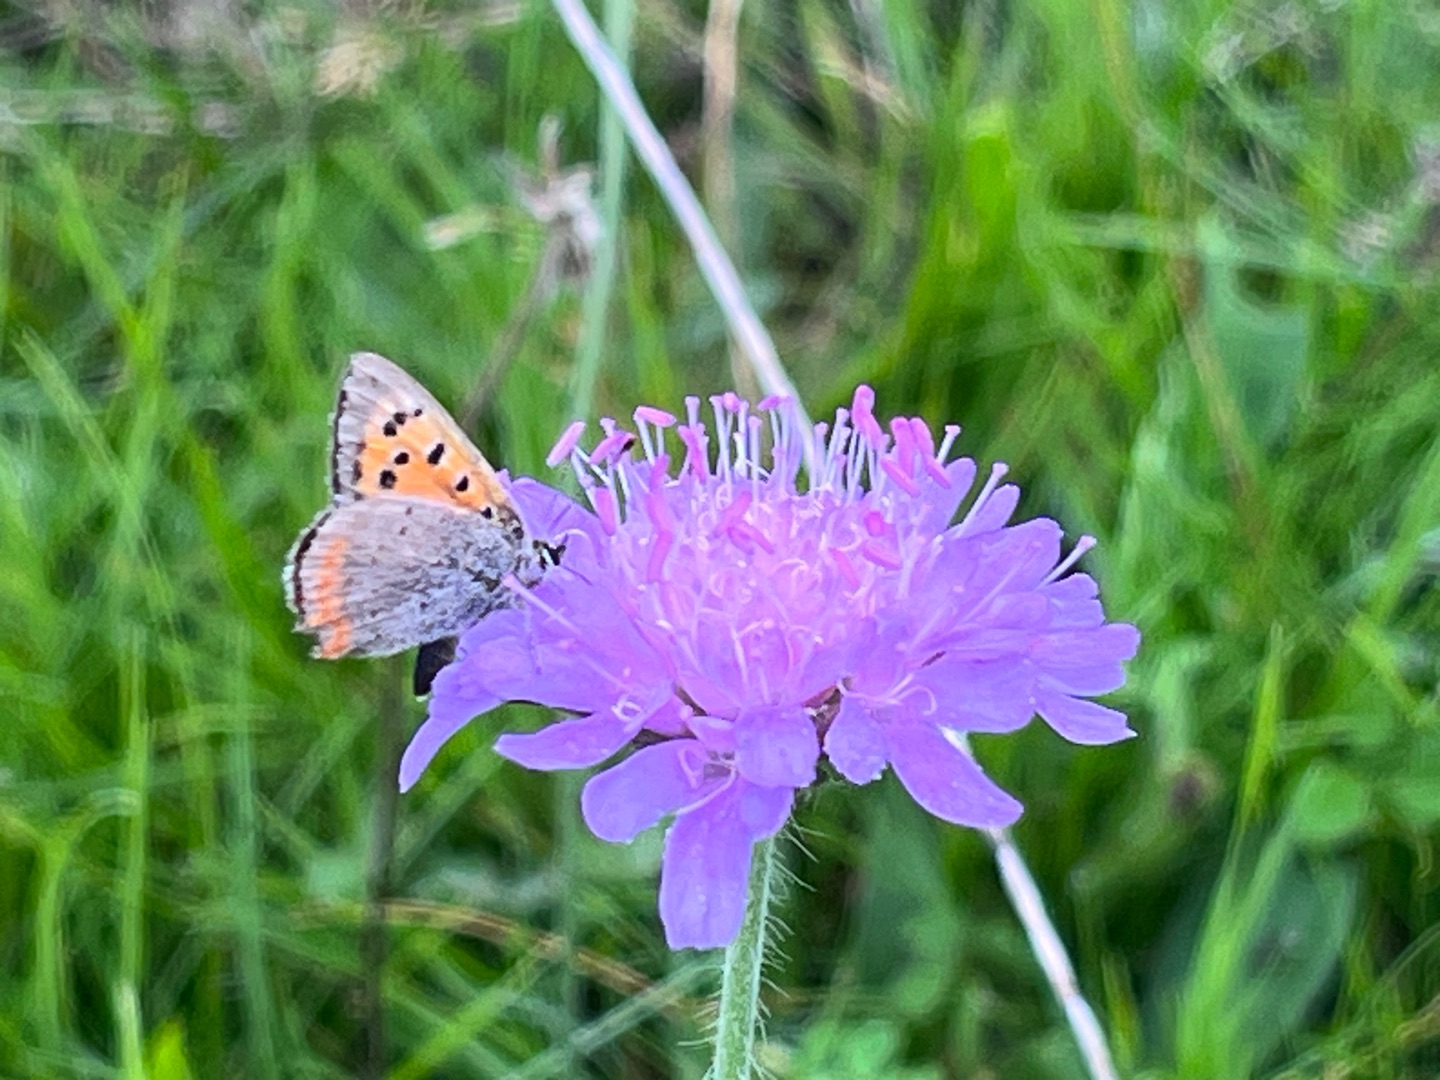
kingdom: Plantae
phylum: Tracheophyta
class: Magnoliopsida
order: Dipsacales
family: Caprifoliaceae
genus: Knautia
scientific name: Knautia arvensis
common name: Blåhat
